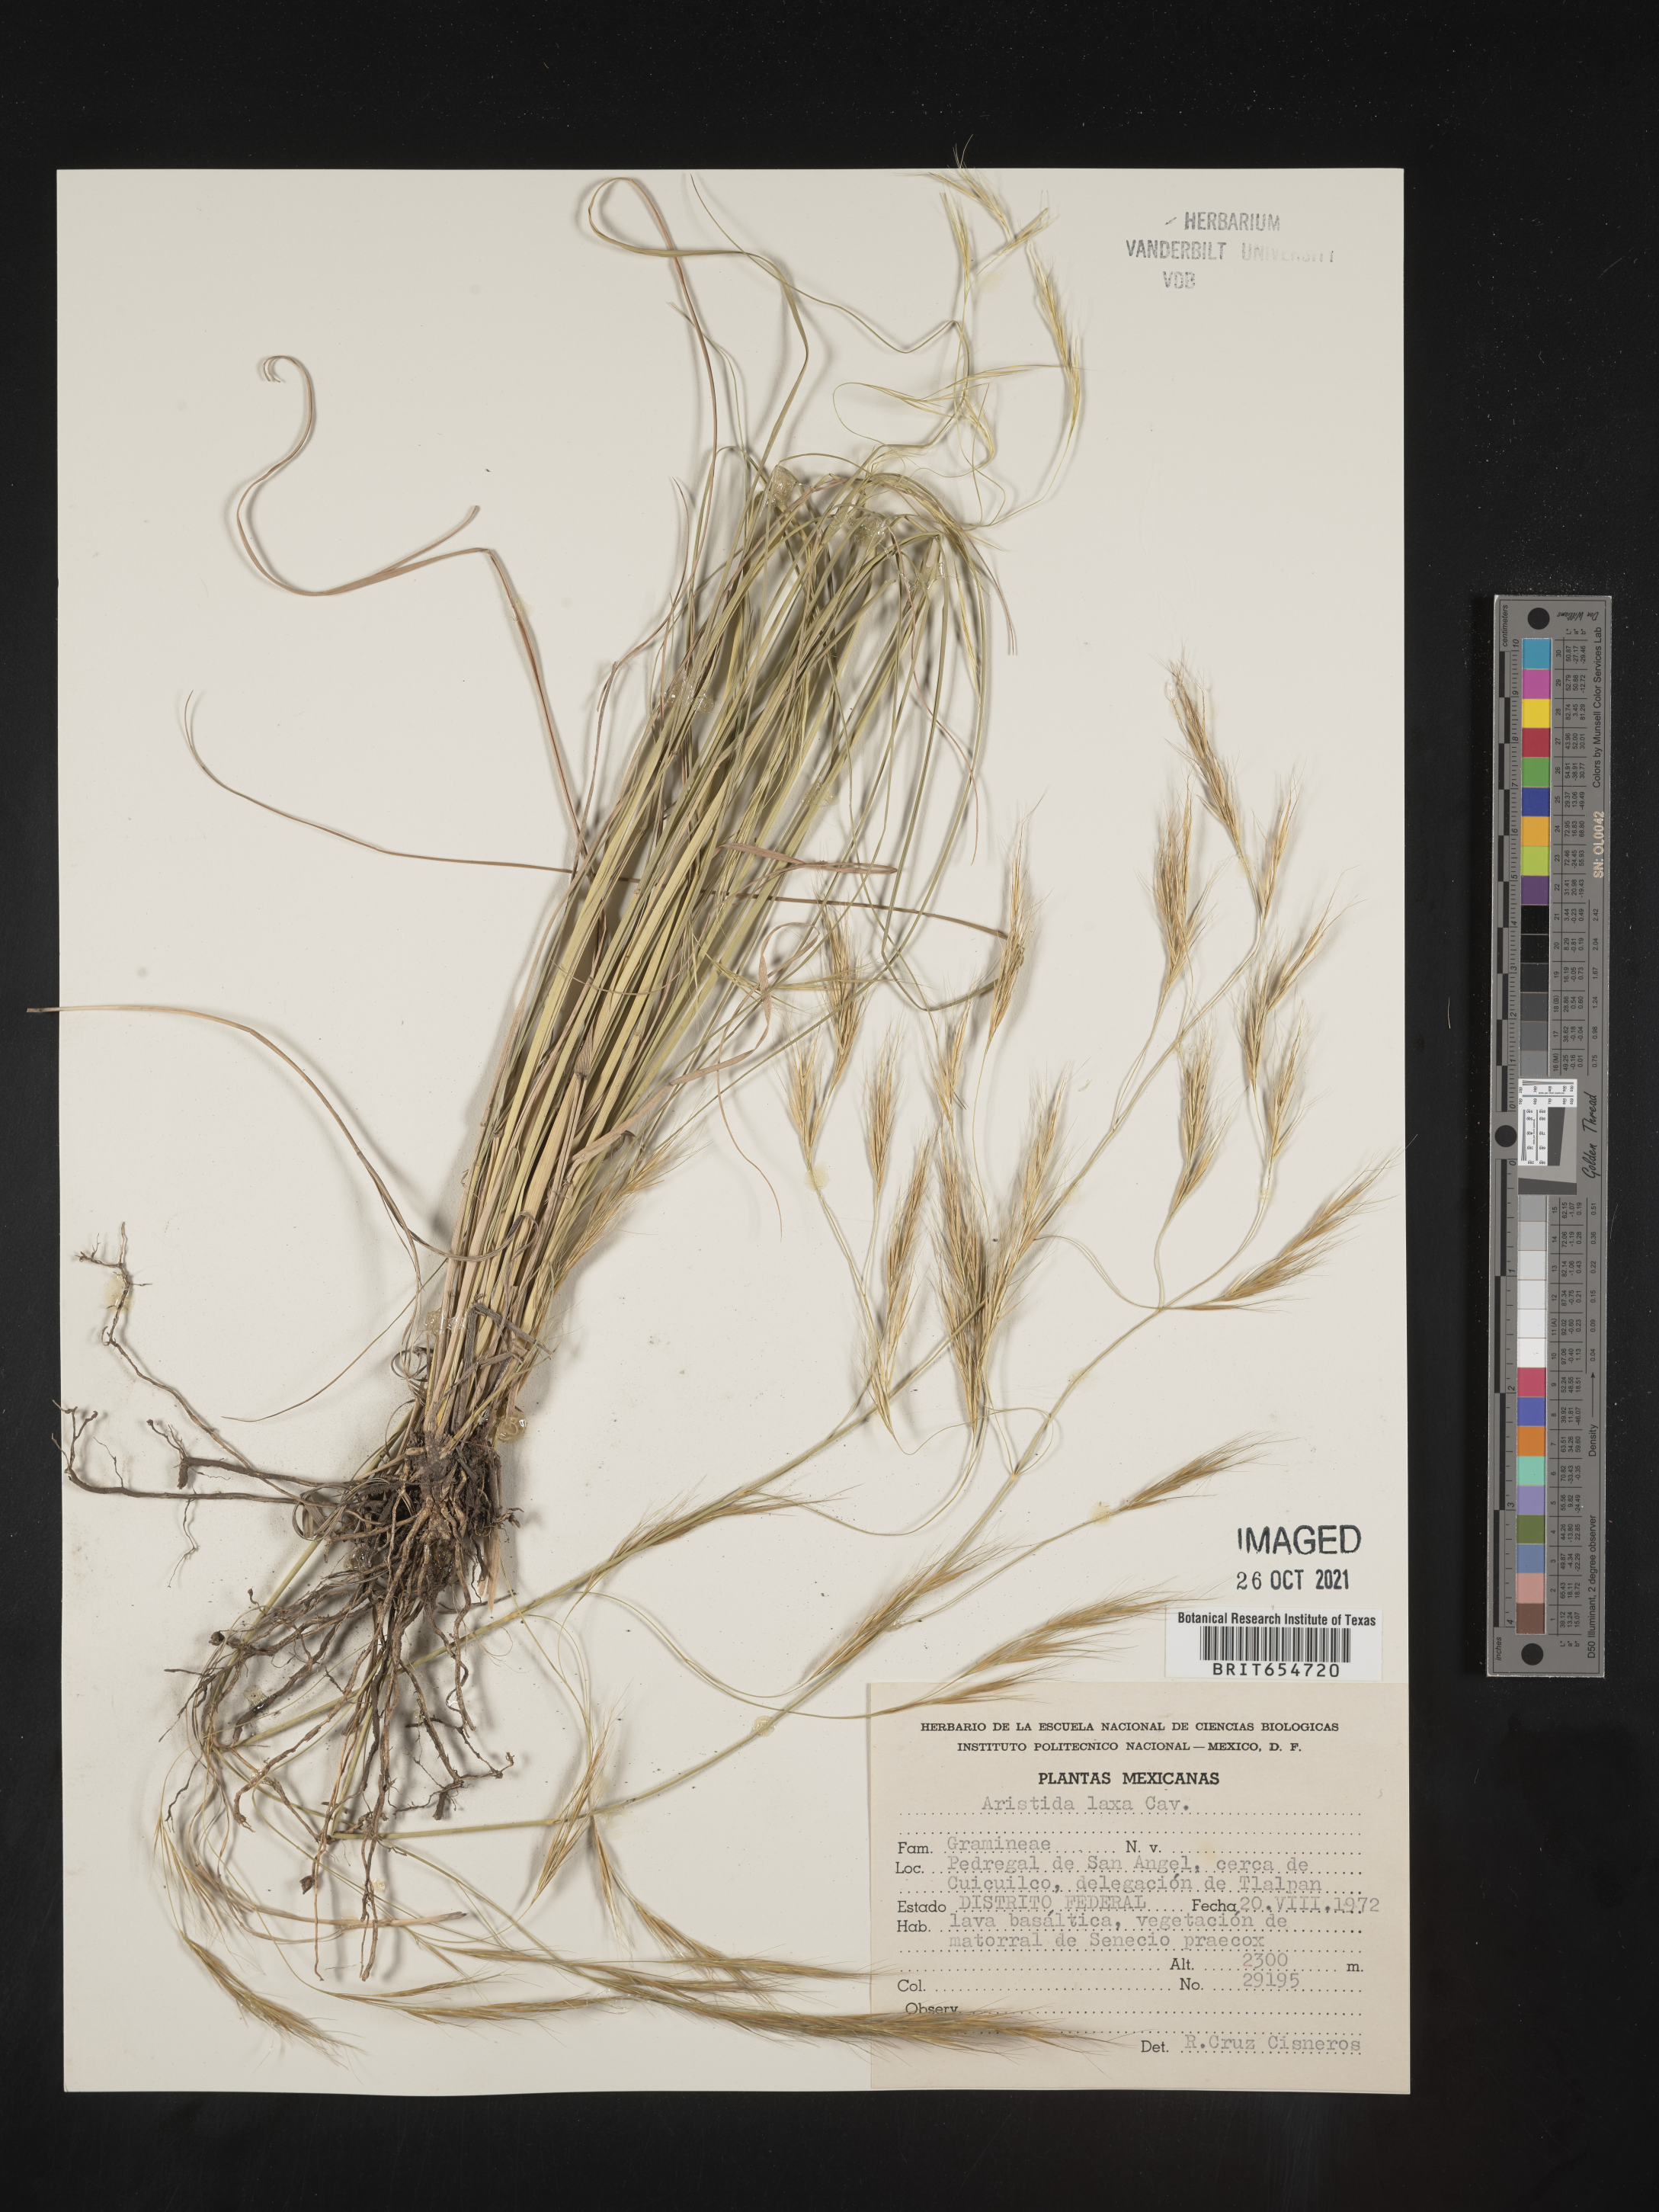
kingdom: Plantae
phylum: Tracheophyta
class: Liliopsida
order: Poales
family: Poaceae
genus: Aristida
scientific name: Aristida
